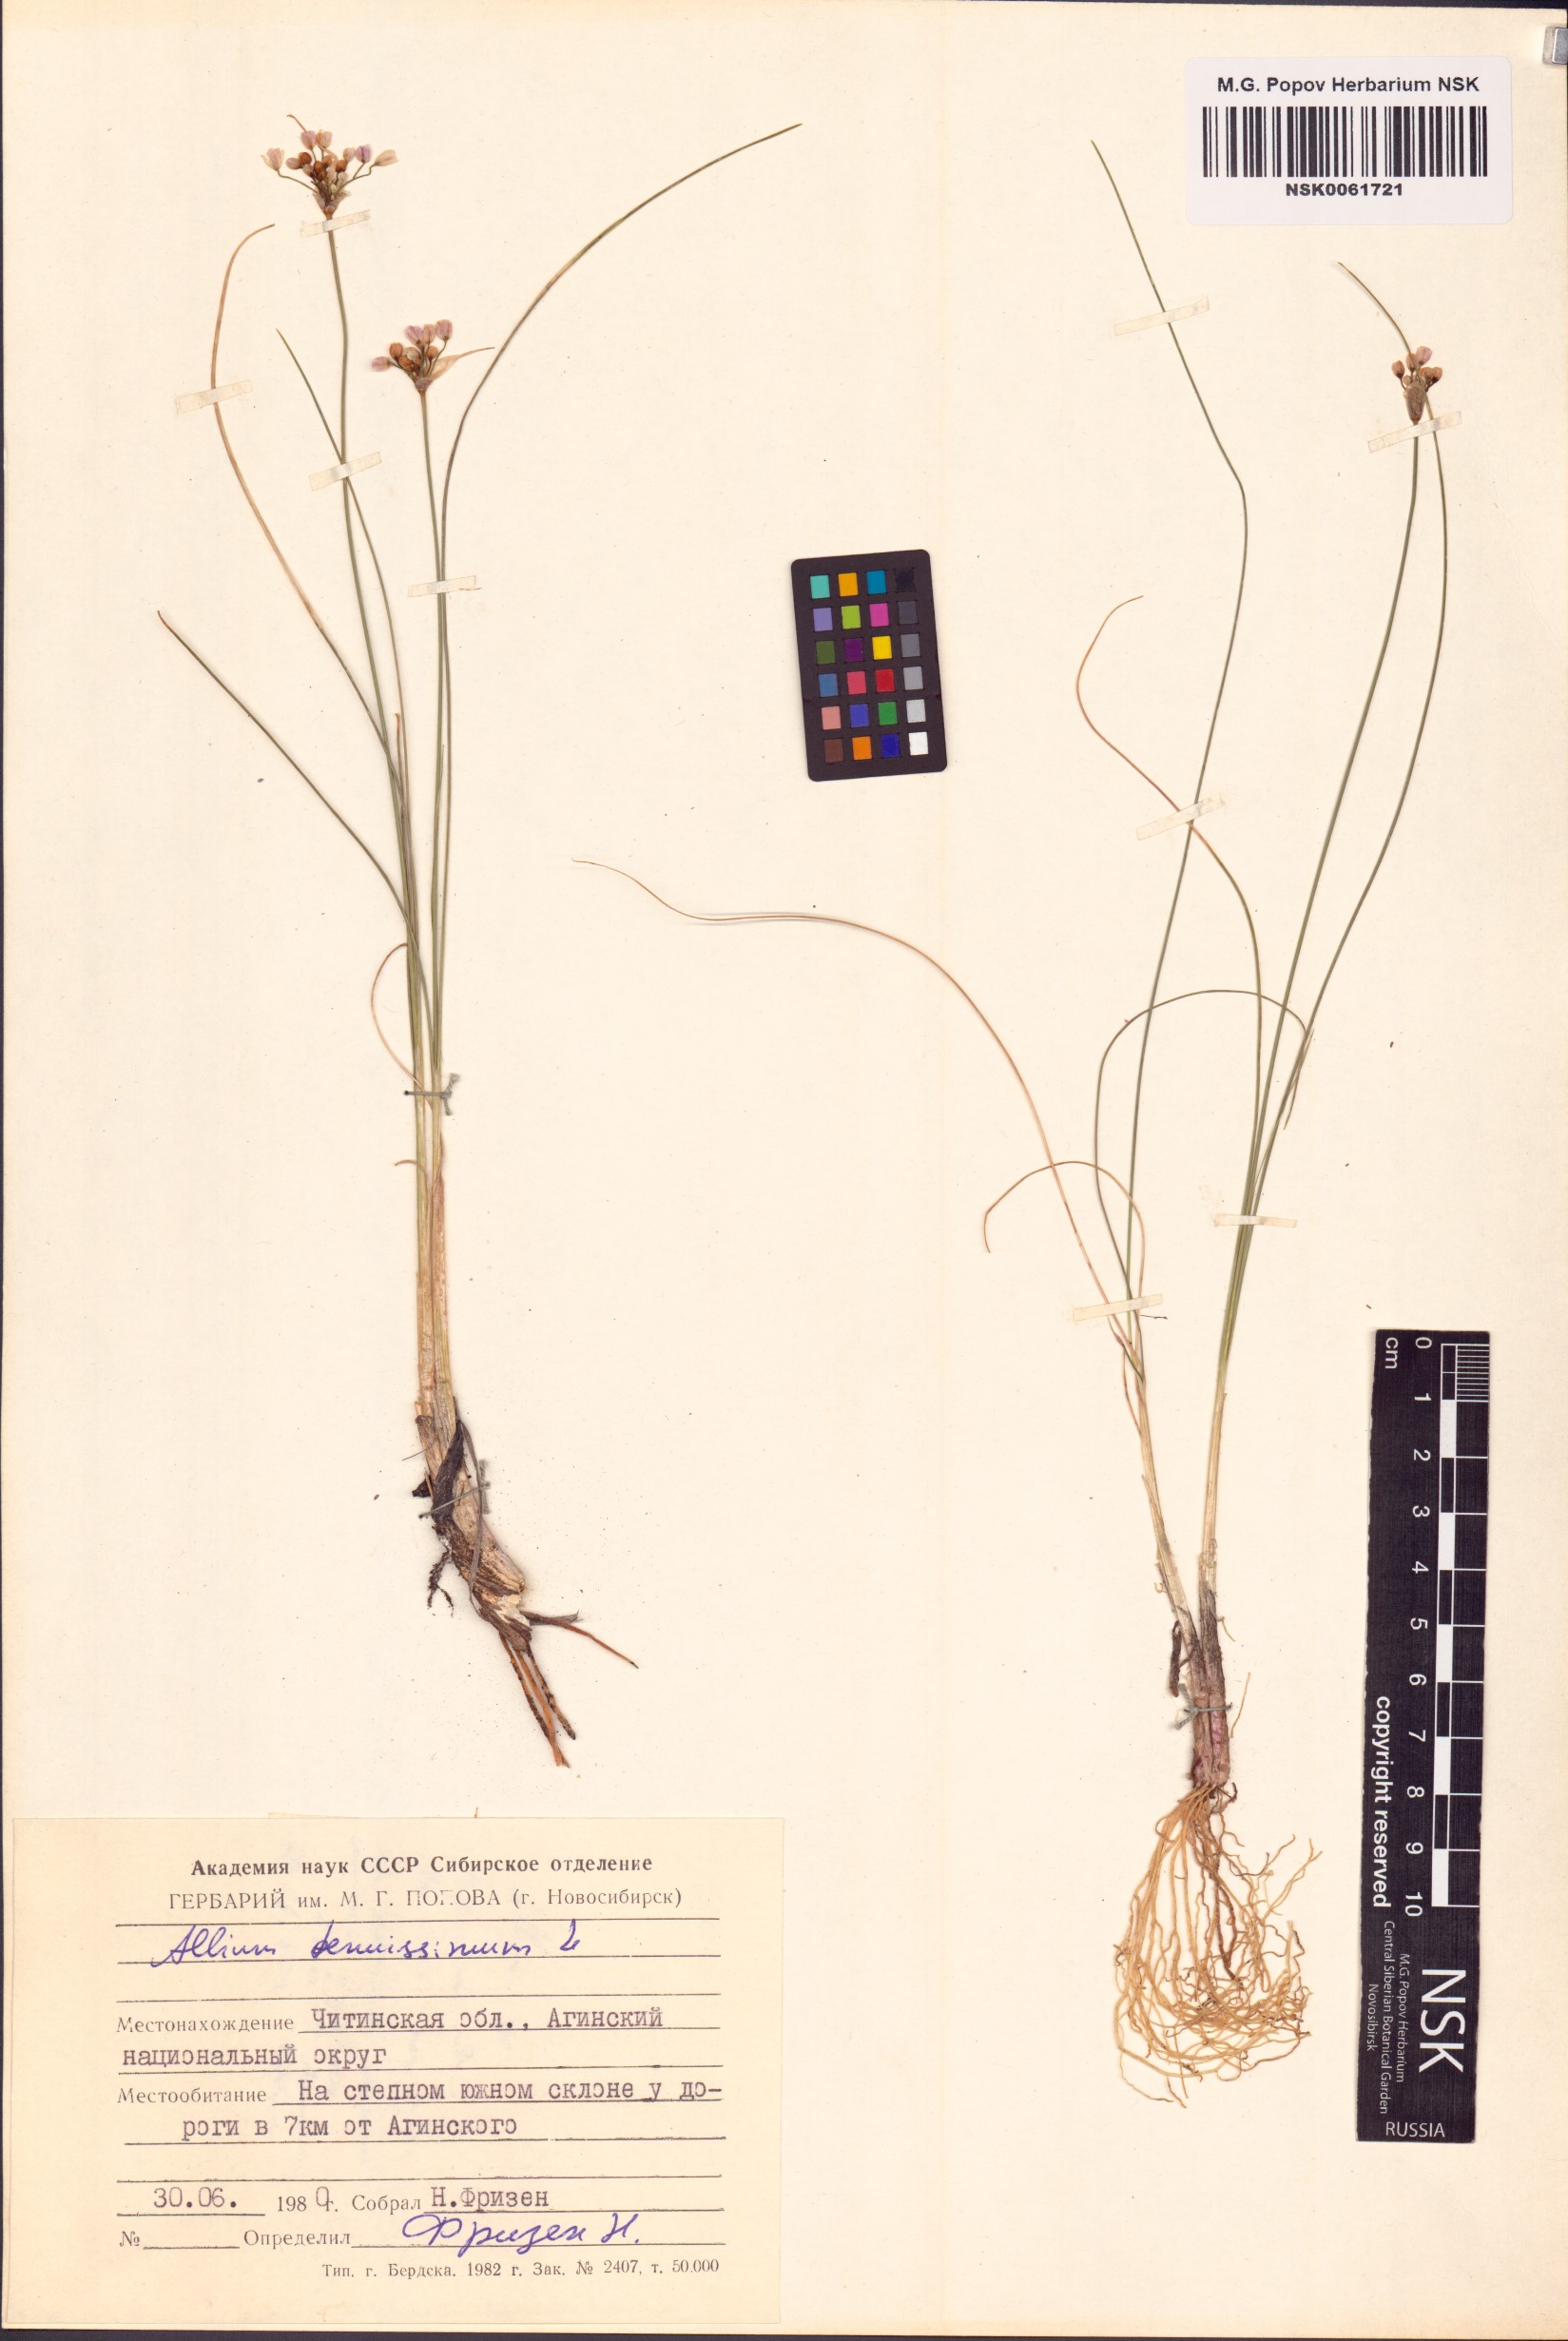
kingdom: Plantae
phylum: Tracheophyta
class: Liliopsida
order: Asparagales
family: Amaryllidaceae
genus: Allium
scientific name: Allium tenuissimum
